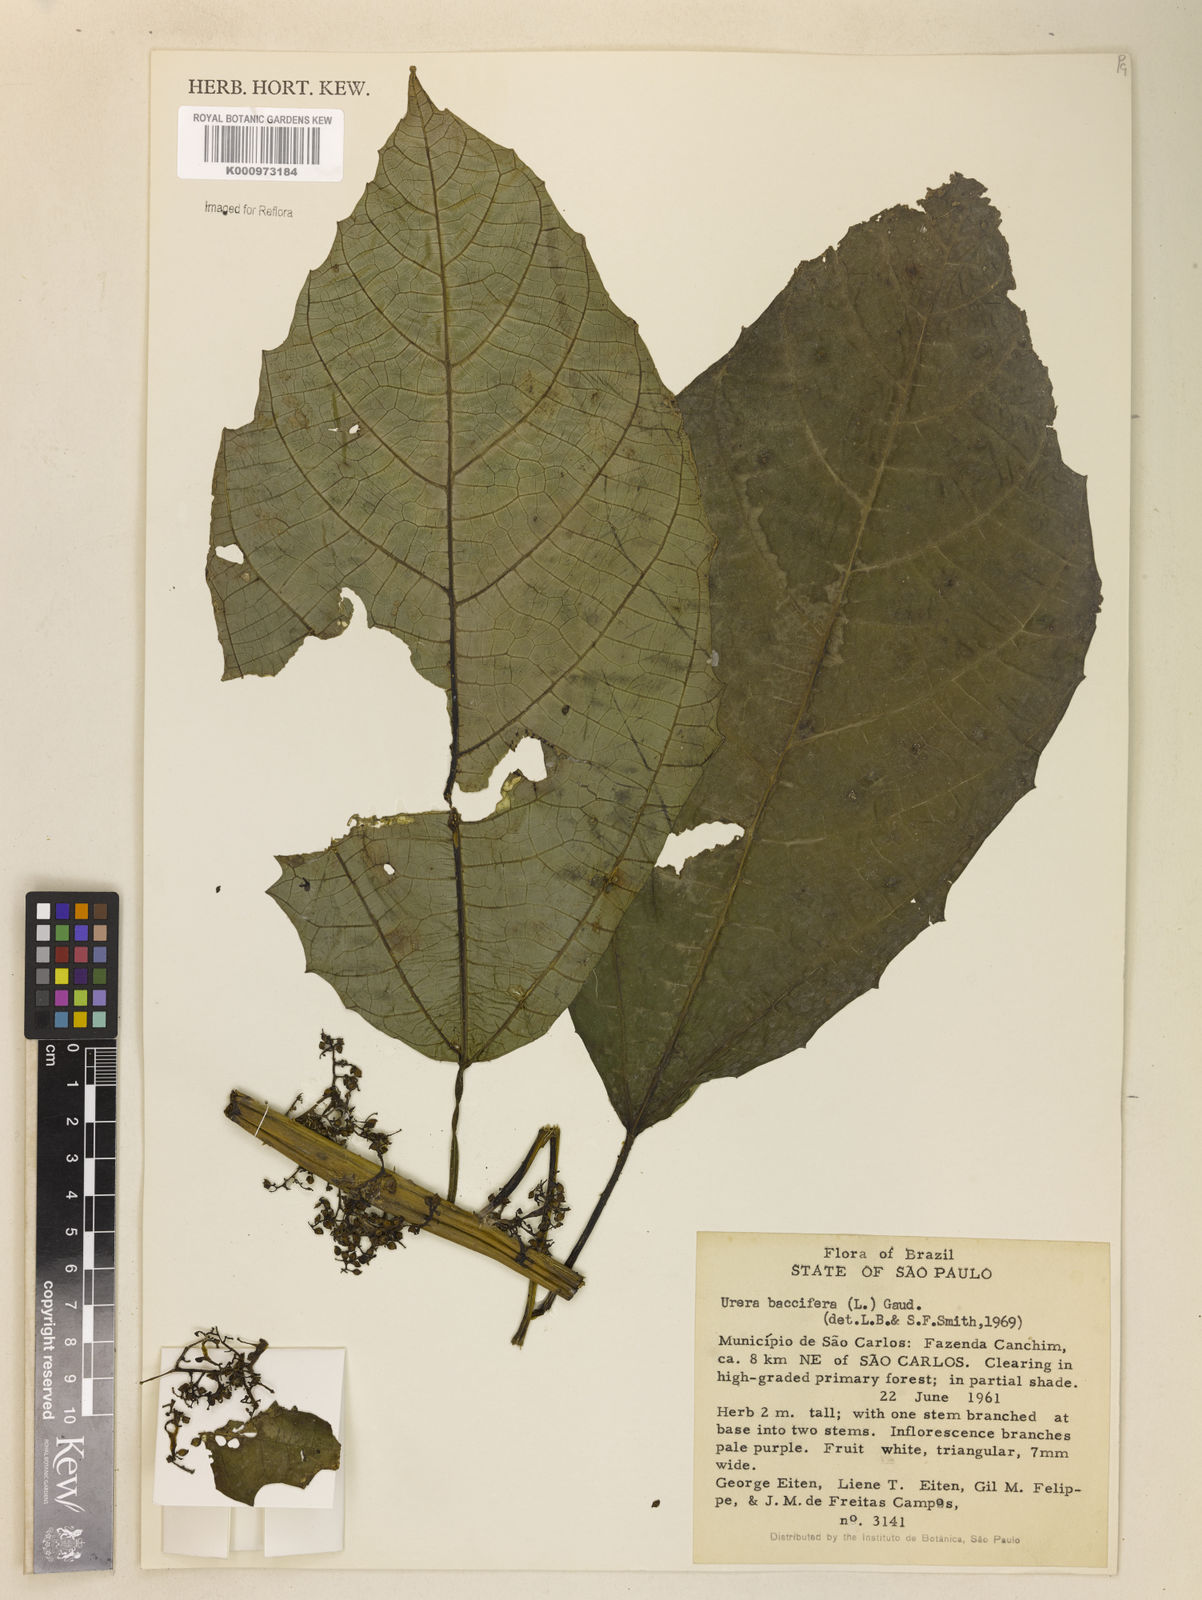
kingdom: Plantae
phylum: Tracheophyta
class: Magnoliopsida
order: Rosales
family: Urticaceae
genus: Urera
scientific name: Urera baccifera
